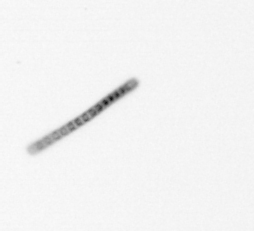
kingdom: Chromista
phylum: Ochrophyta
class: Bacillariophyceae
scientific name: Bacillariophyceae
